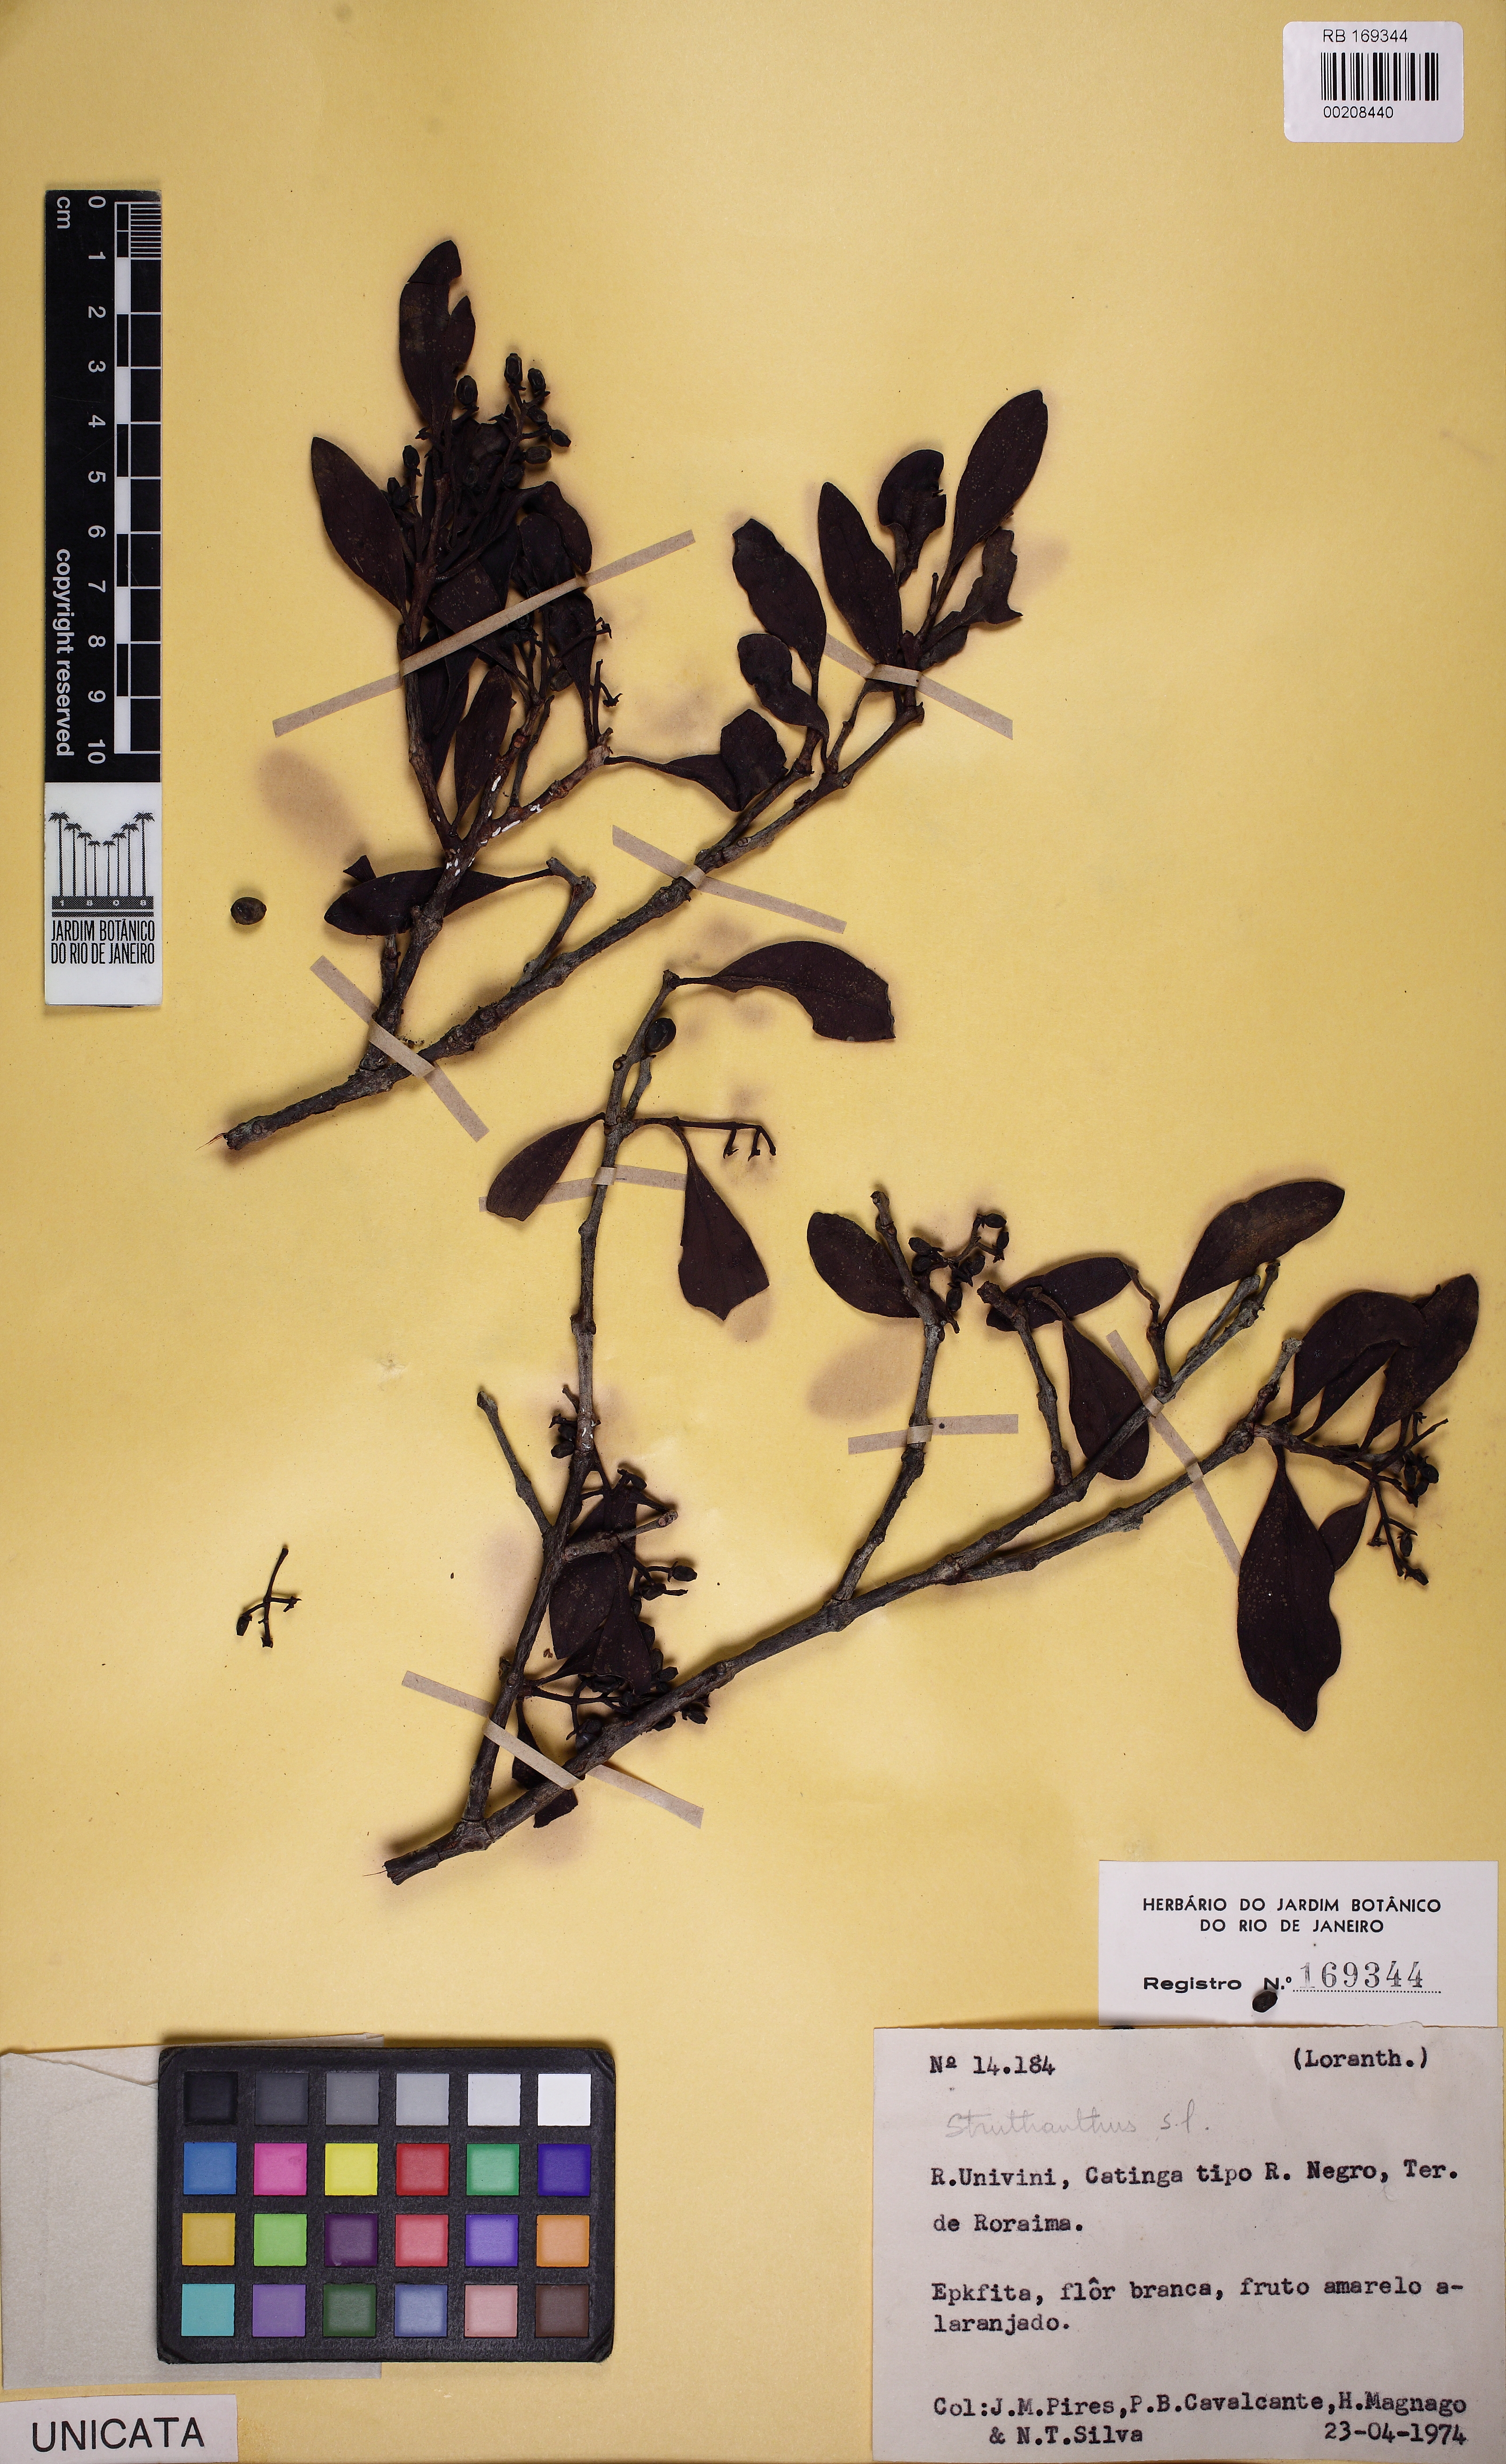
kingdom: Plantae
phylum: Tracheophyta
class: Magnoliopsida
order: Santalales
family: Loranthaceae
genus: Struthanthus
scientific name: Struthanthus
